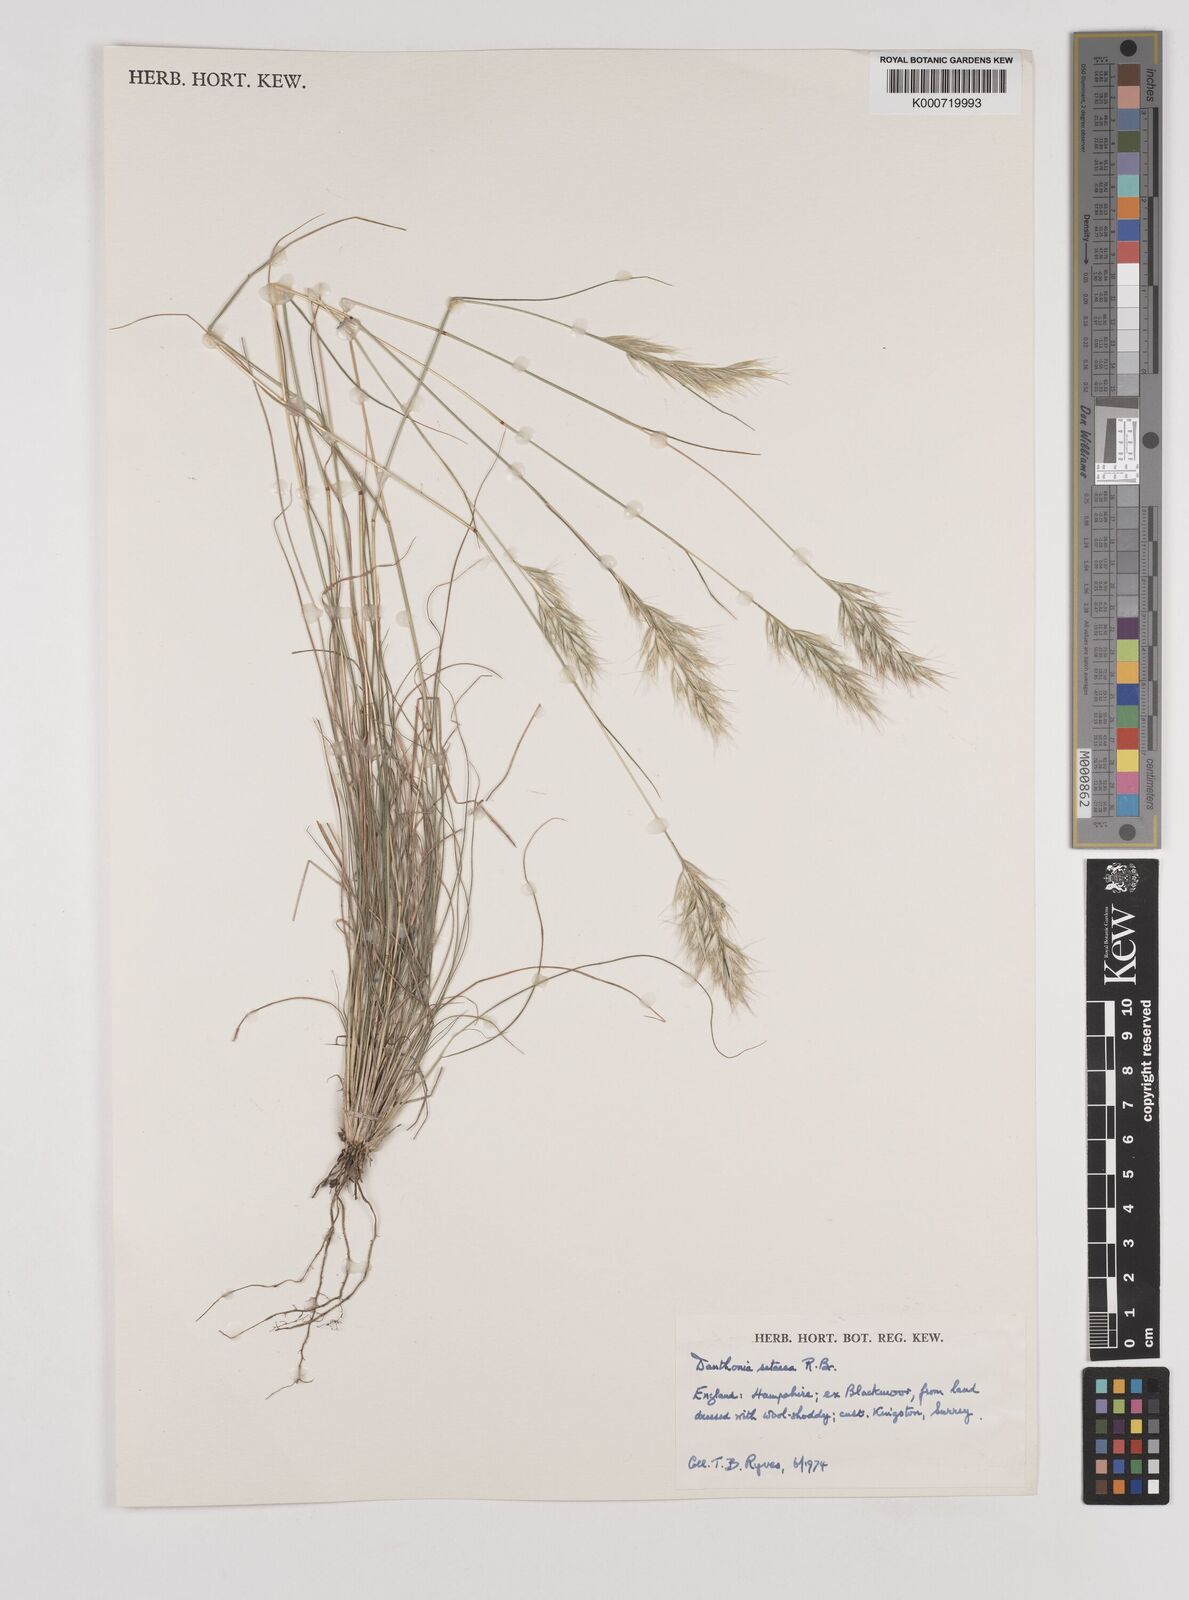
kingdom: Plantae
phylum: Tracheophyta
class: Liliopsida
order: Poales
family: Poaceae
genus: Rytidosperma
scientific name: Rytidosperma setaceum
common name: Small-flower wallaby grass
